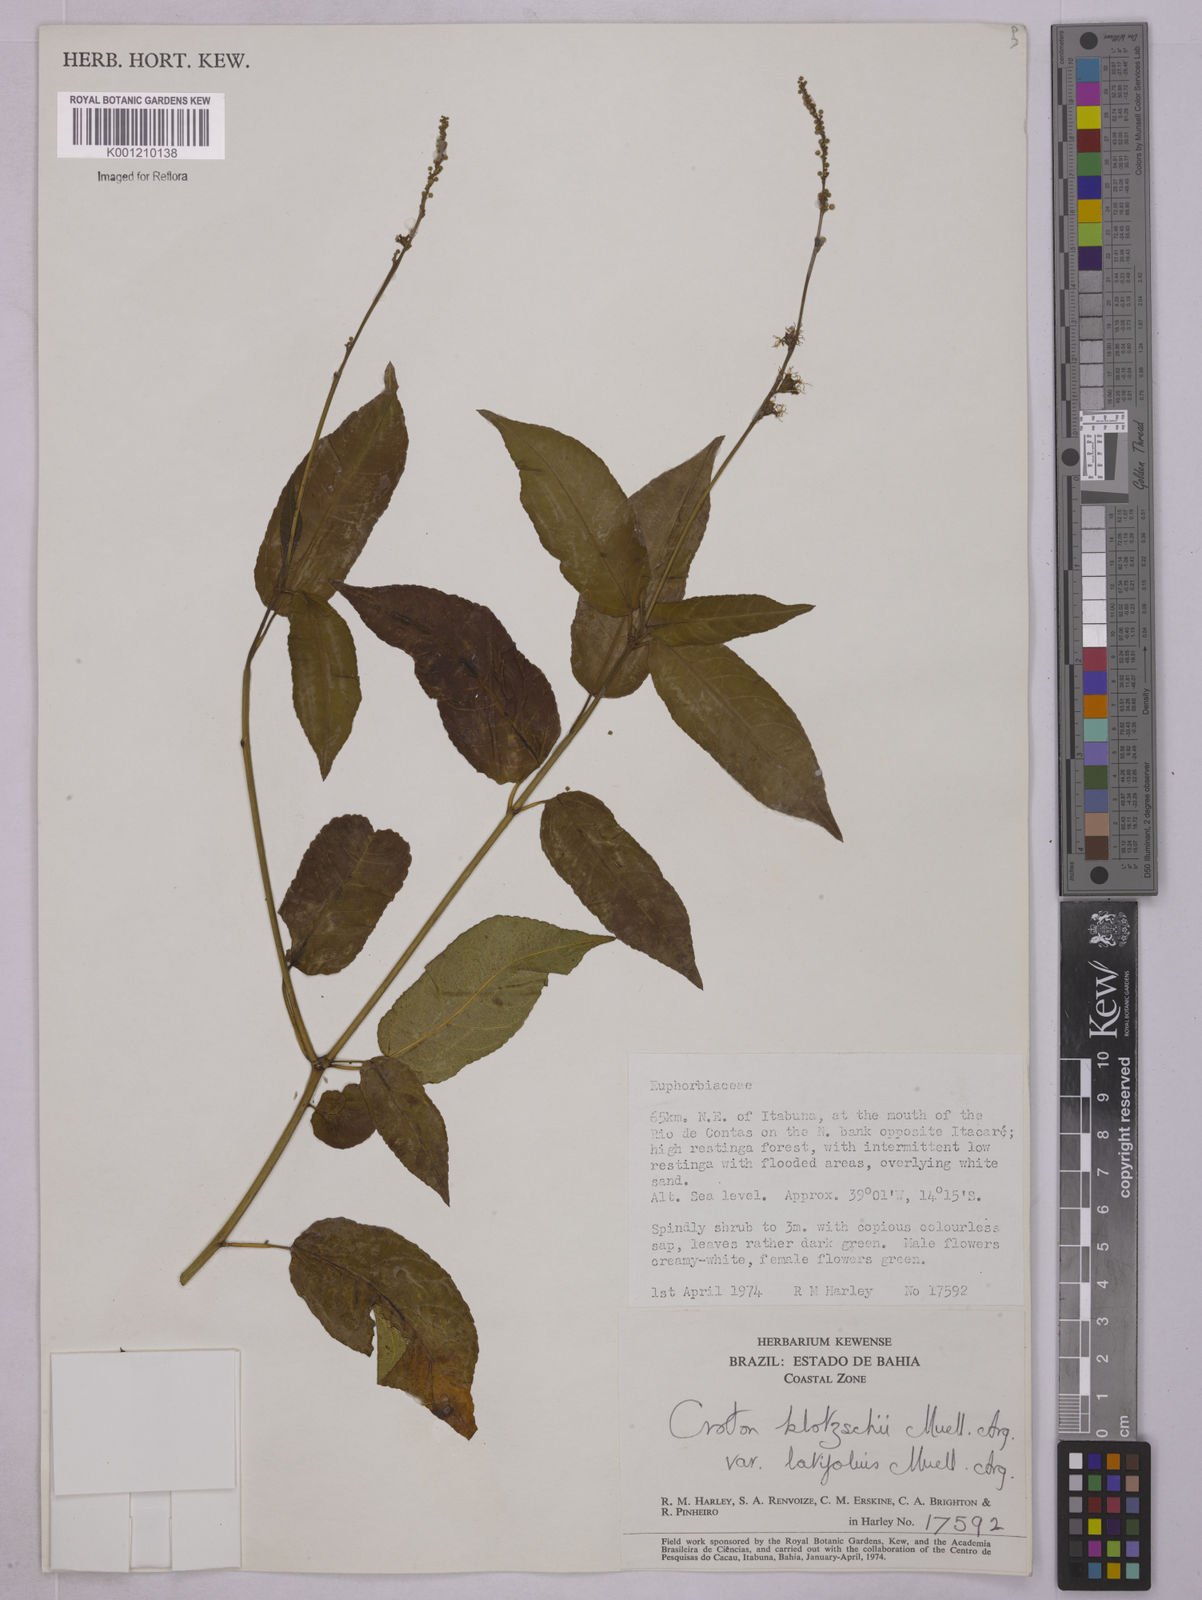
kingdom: Plantae
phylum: Tracheophyta
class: Magnoliopsida
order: Malpighiales
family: Euphorbiaceae
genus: Astraea
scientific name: Astraea macroura
